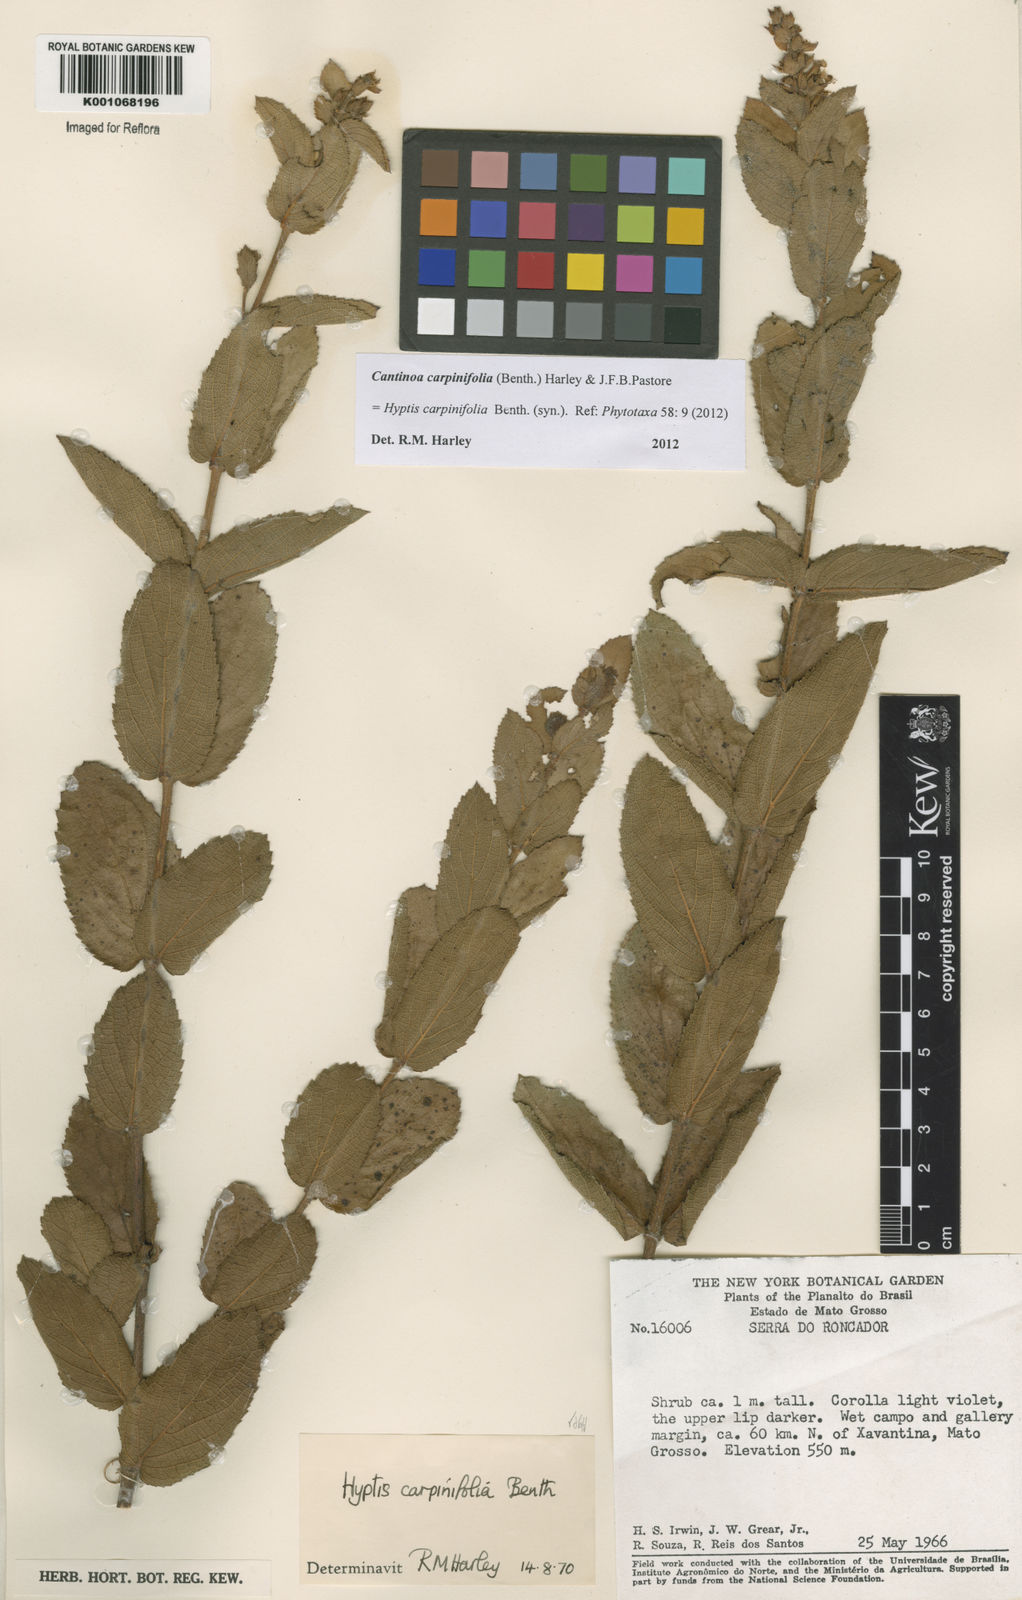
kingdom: Plantae
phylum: Tracheophyta
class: Magnoliopsida
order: Lamiales
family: Lamiaceae
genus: Cantinoa
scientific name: Cantinoa carpinifolia
